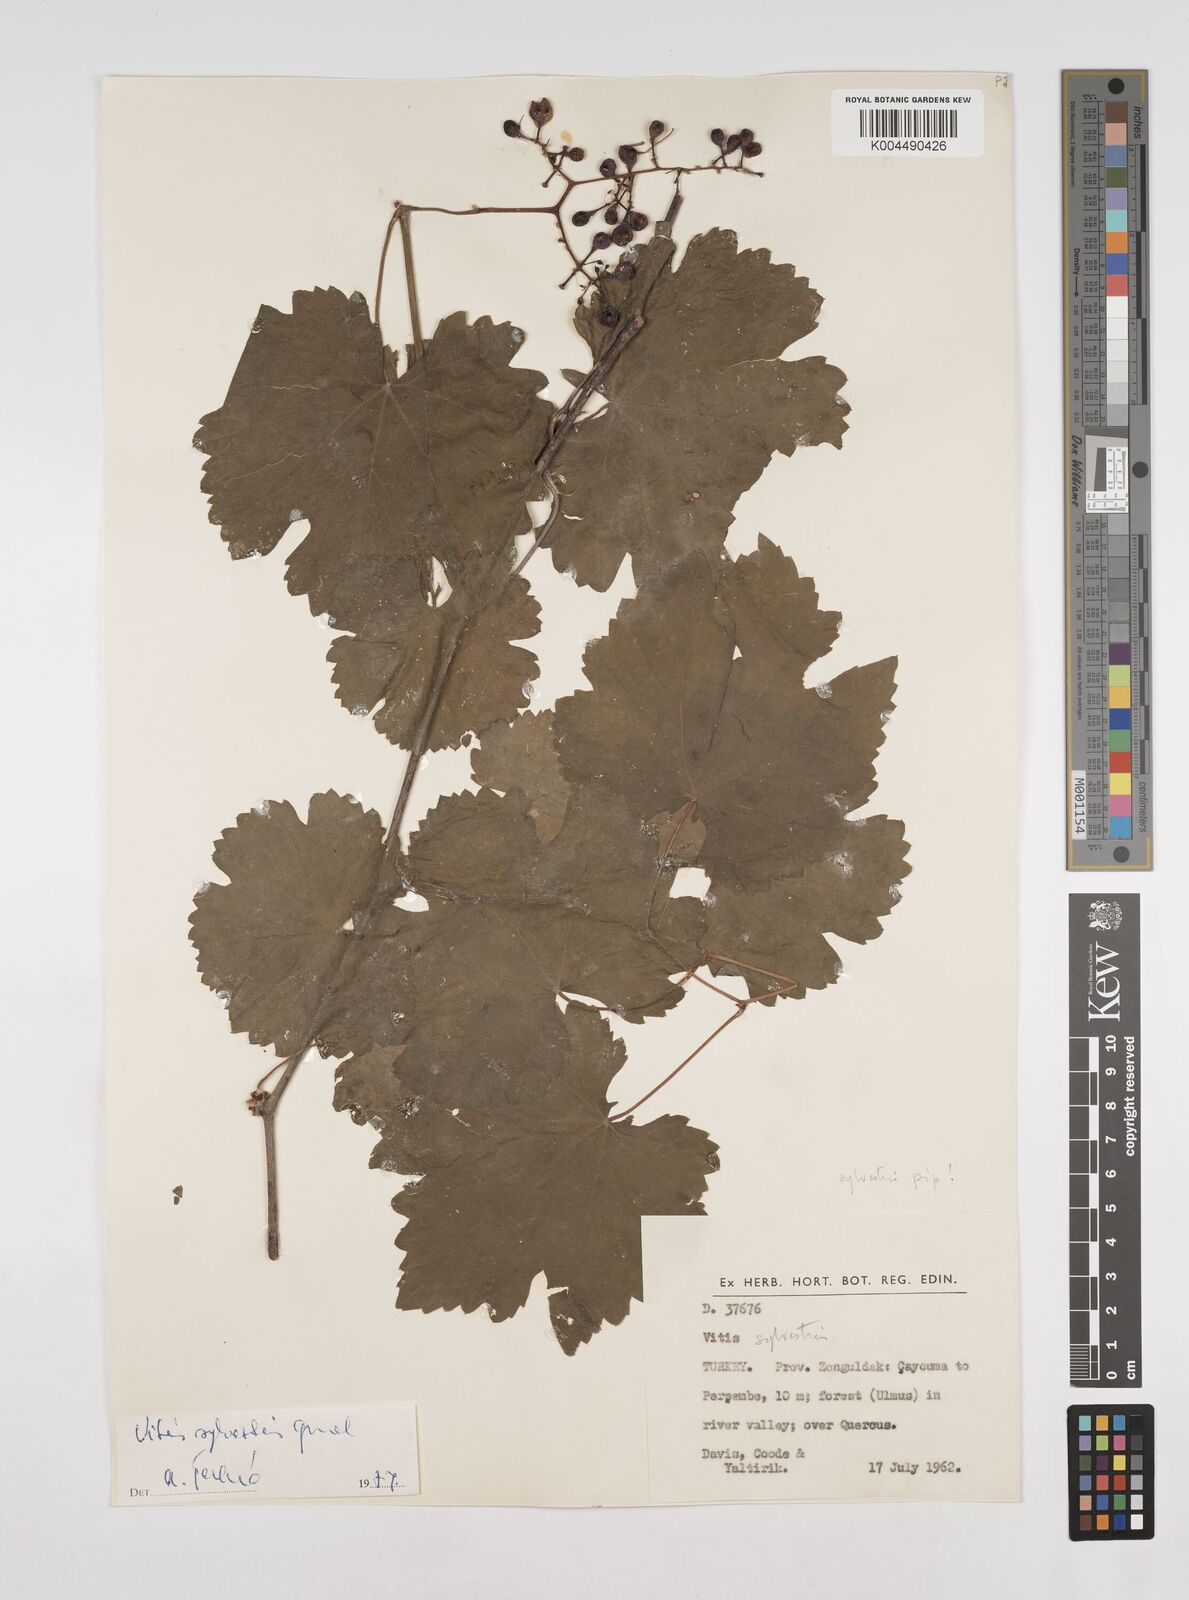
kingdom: Plantae
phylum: Tracheophyta
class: Magnoliopsida
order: Vitales
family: Vitaceae
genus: Vitis
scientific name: Vitis gmelinii
